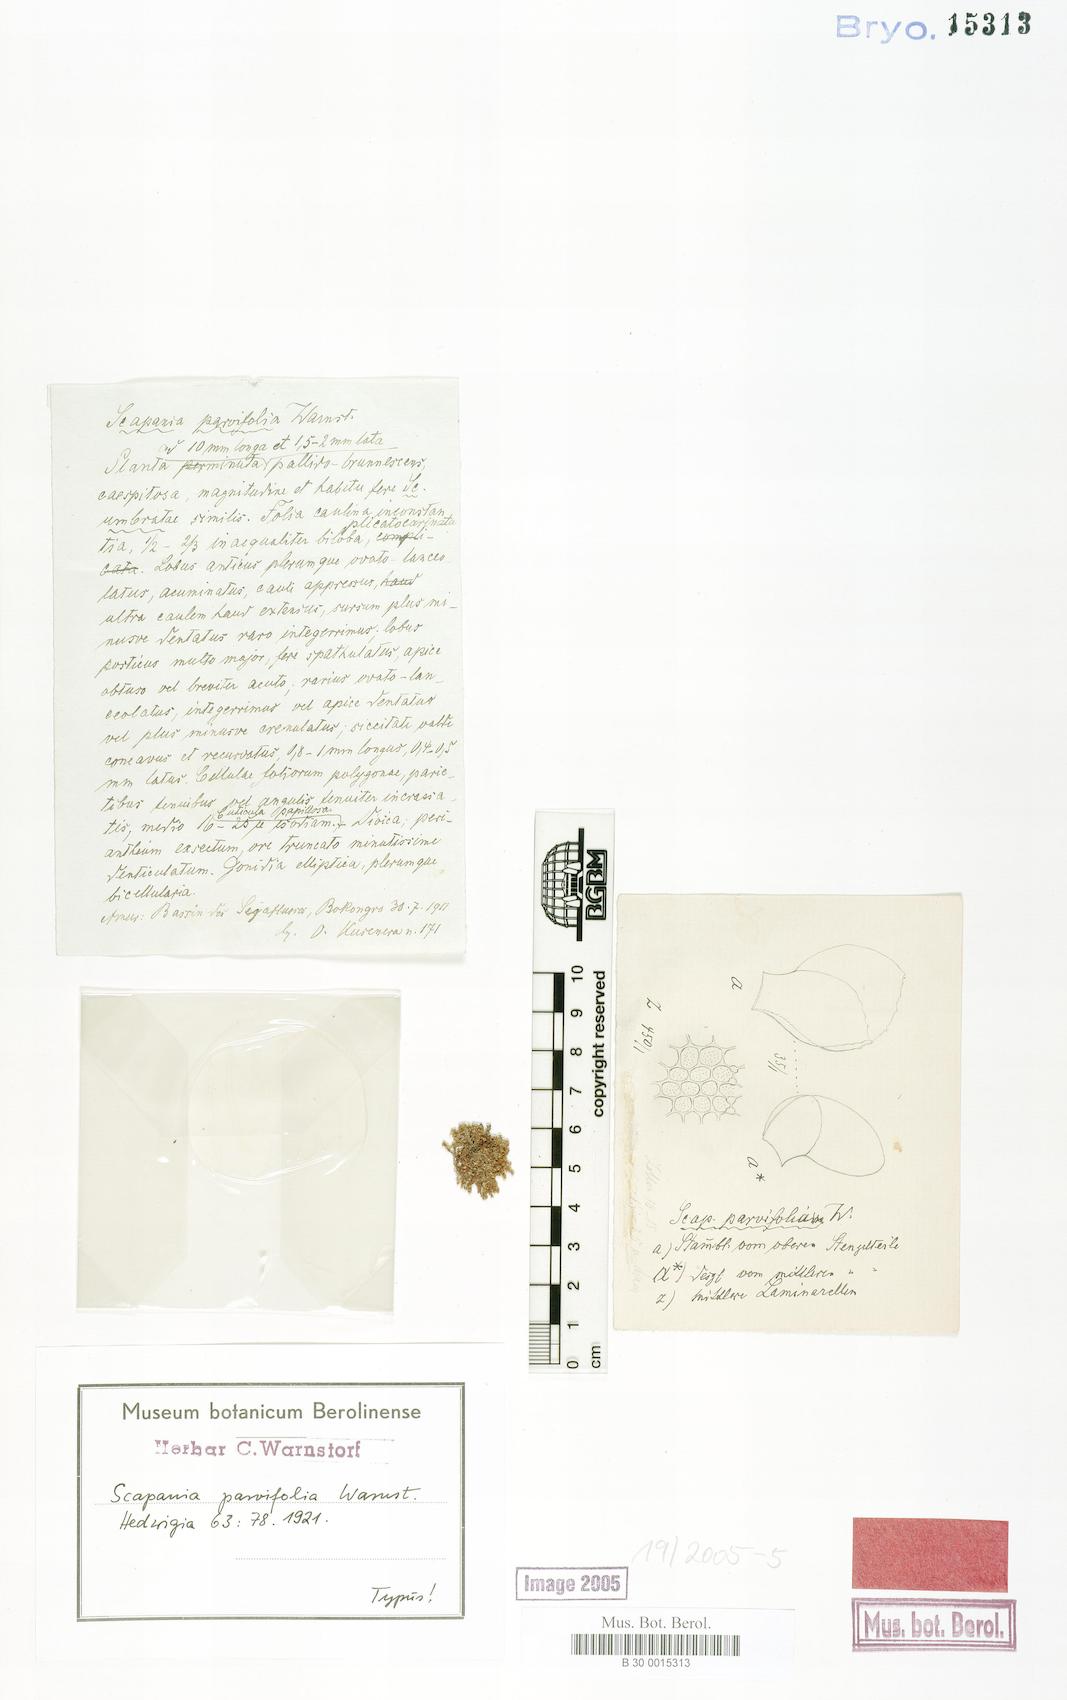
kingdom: Plantae
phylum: Marchantiophyta
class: Jungermanniopsida
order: Jungermanniales
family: Scapaniaceae
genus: Scapania
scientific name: Scapania parvifolia
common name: Obscure earwort
